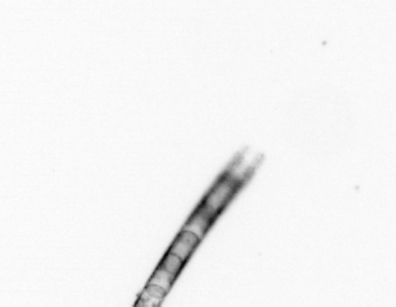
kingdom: Chromista
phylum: Ochrophyta
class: Bacillariophyceae
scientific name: Bacillariophyceae
